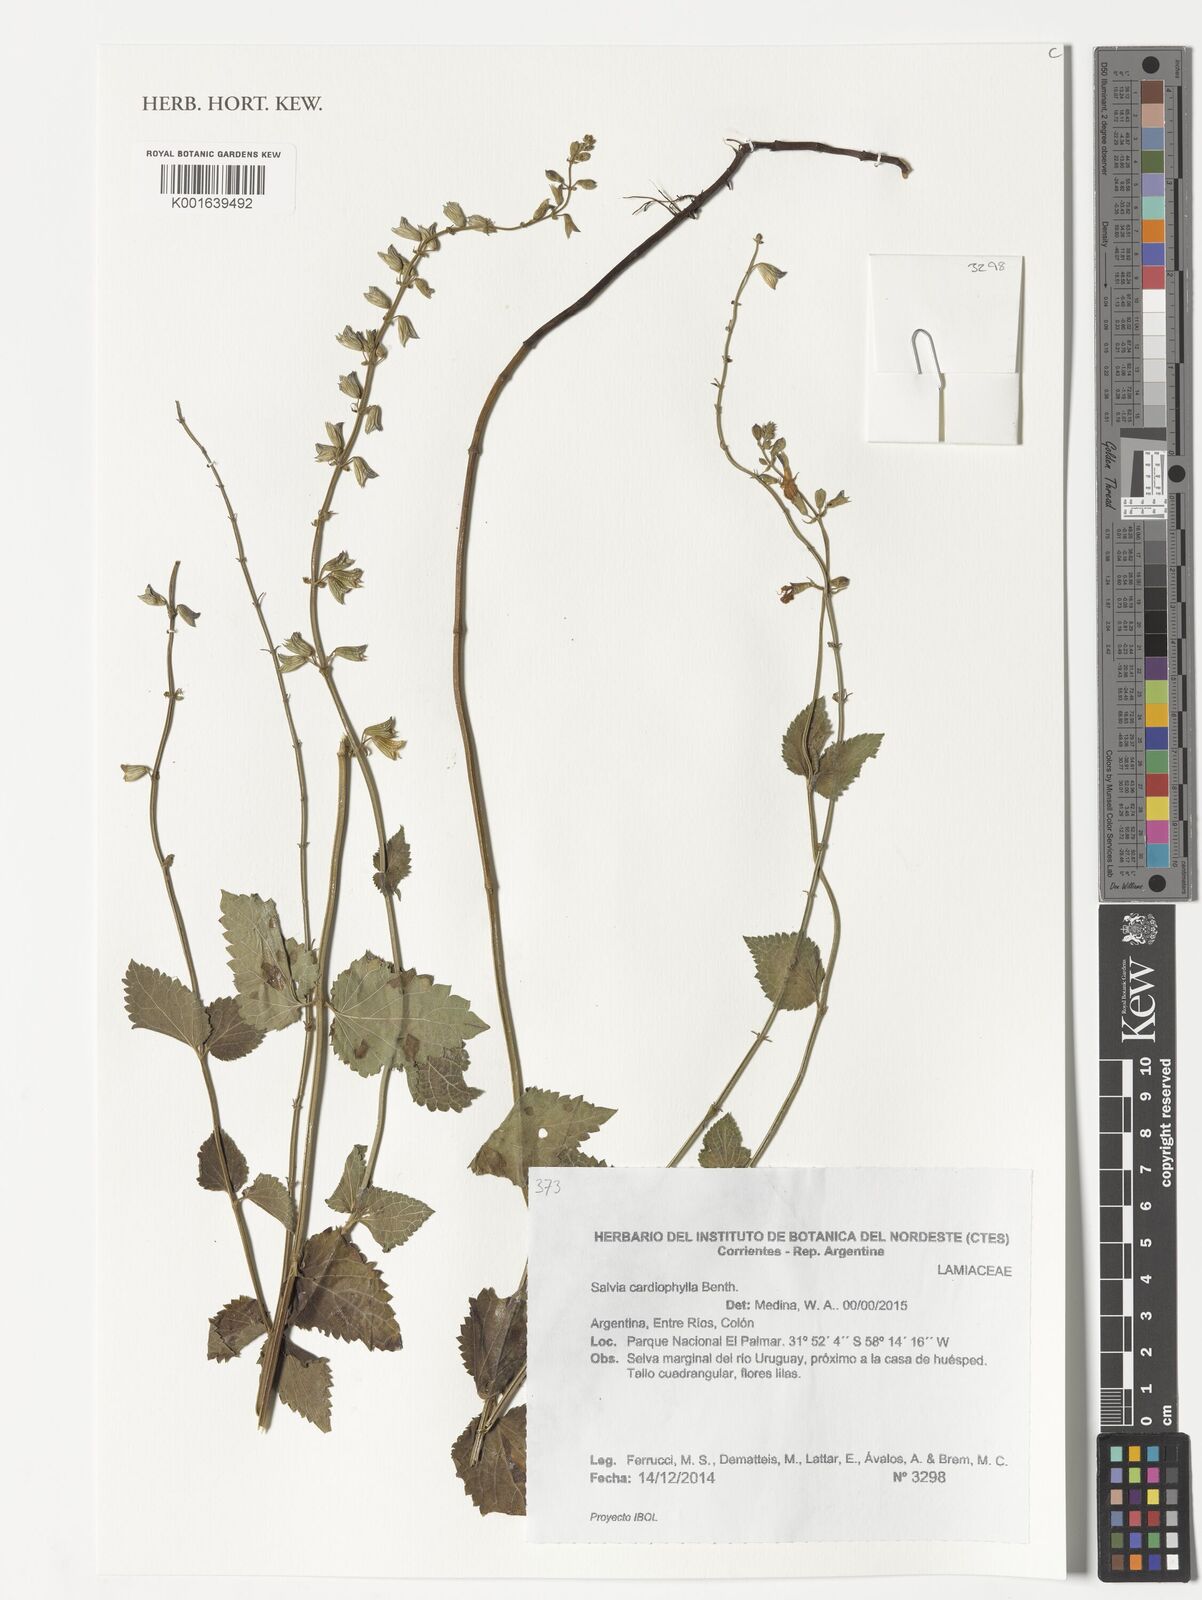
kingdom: Plantae
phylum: Tracheophyta
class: Magnoliopsida
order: Lamiales
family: Lamiaceae
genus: Salvia
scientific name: Salvia cardiophylla
